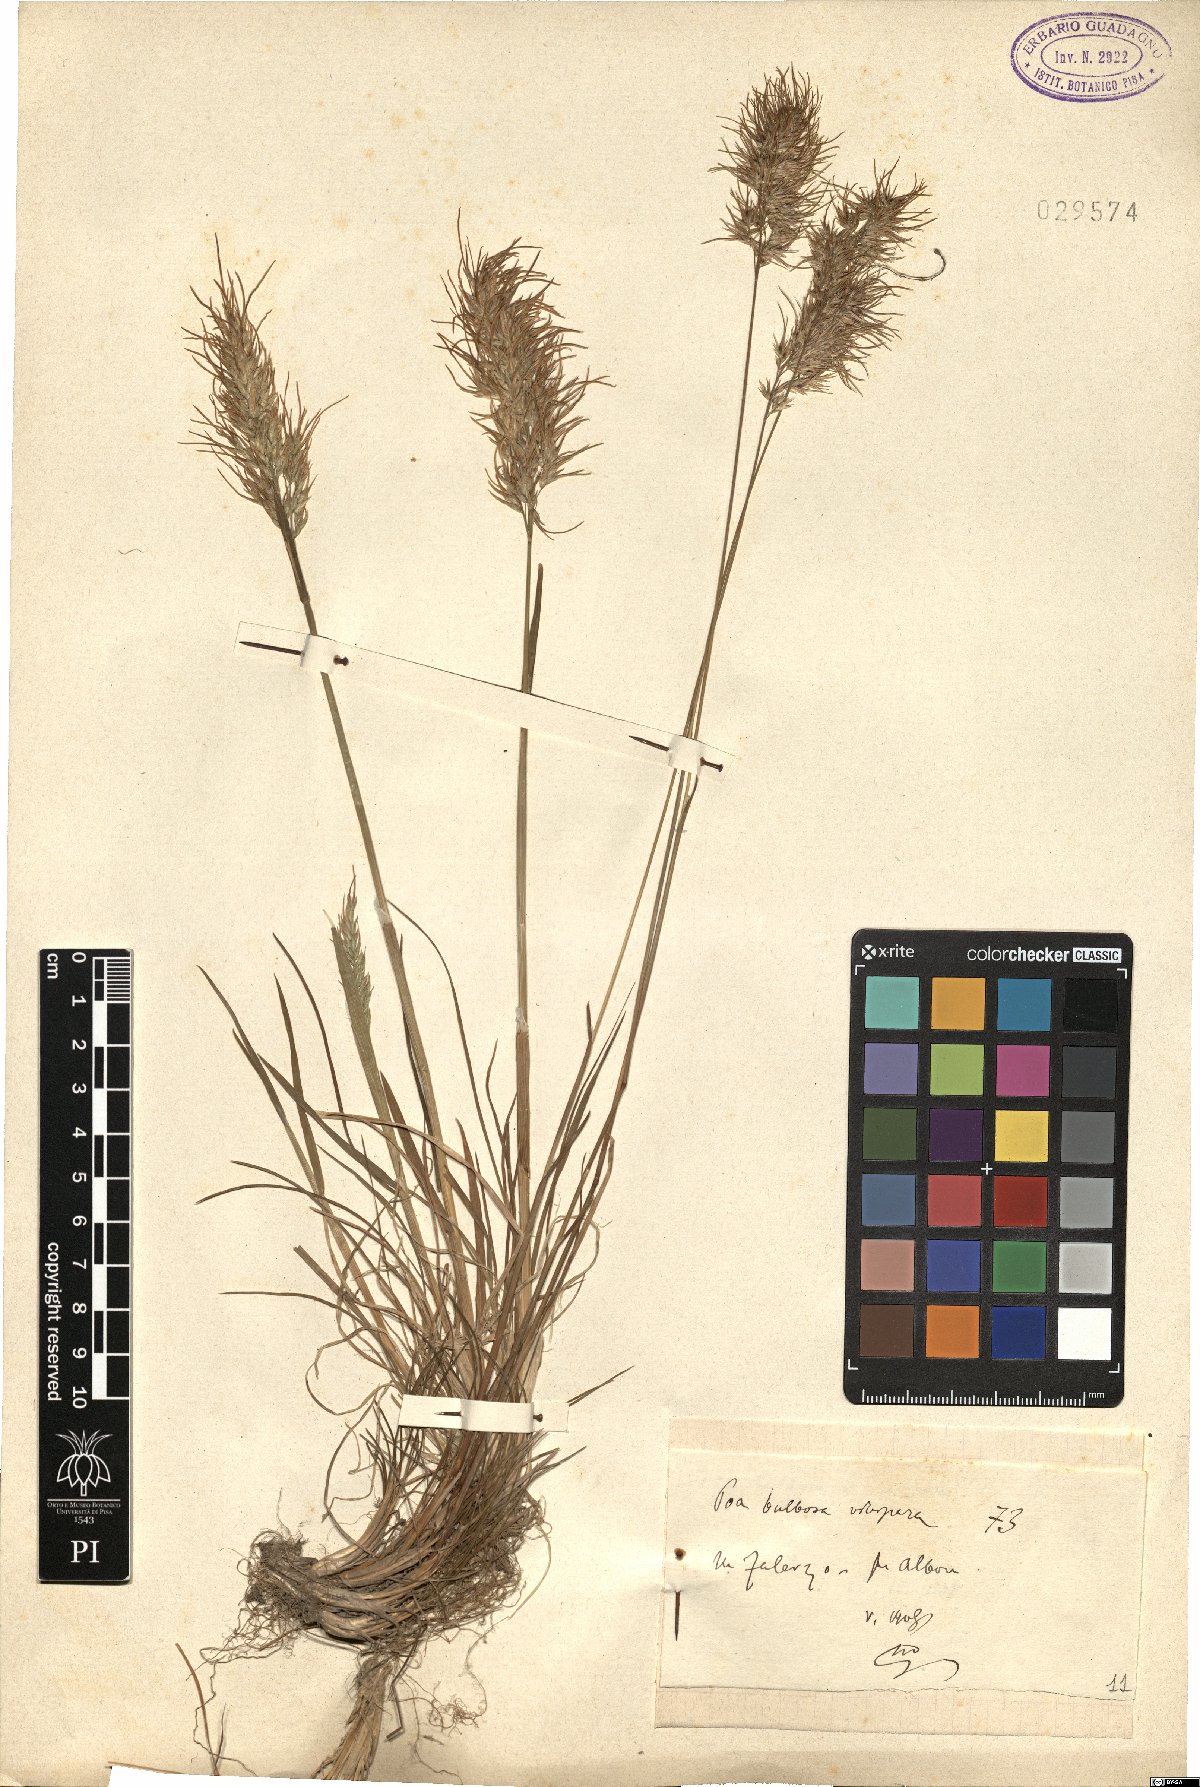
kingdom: Plantae
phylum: Tracheophyta
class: Liliopsida
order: Poales
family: Poaceae
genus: Poa
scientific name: Poa bulbosa
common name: Bulbous bluegrass
